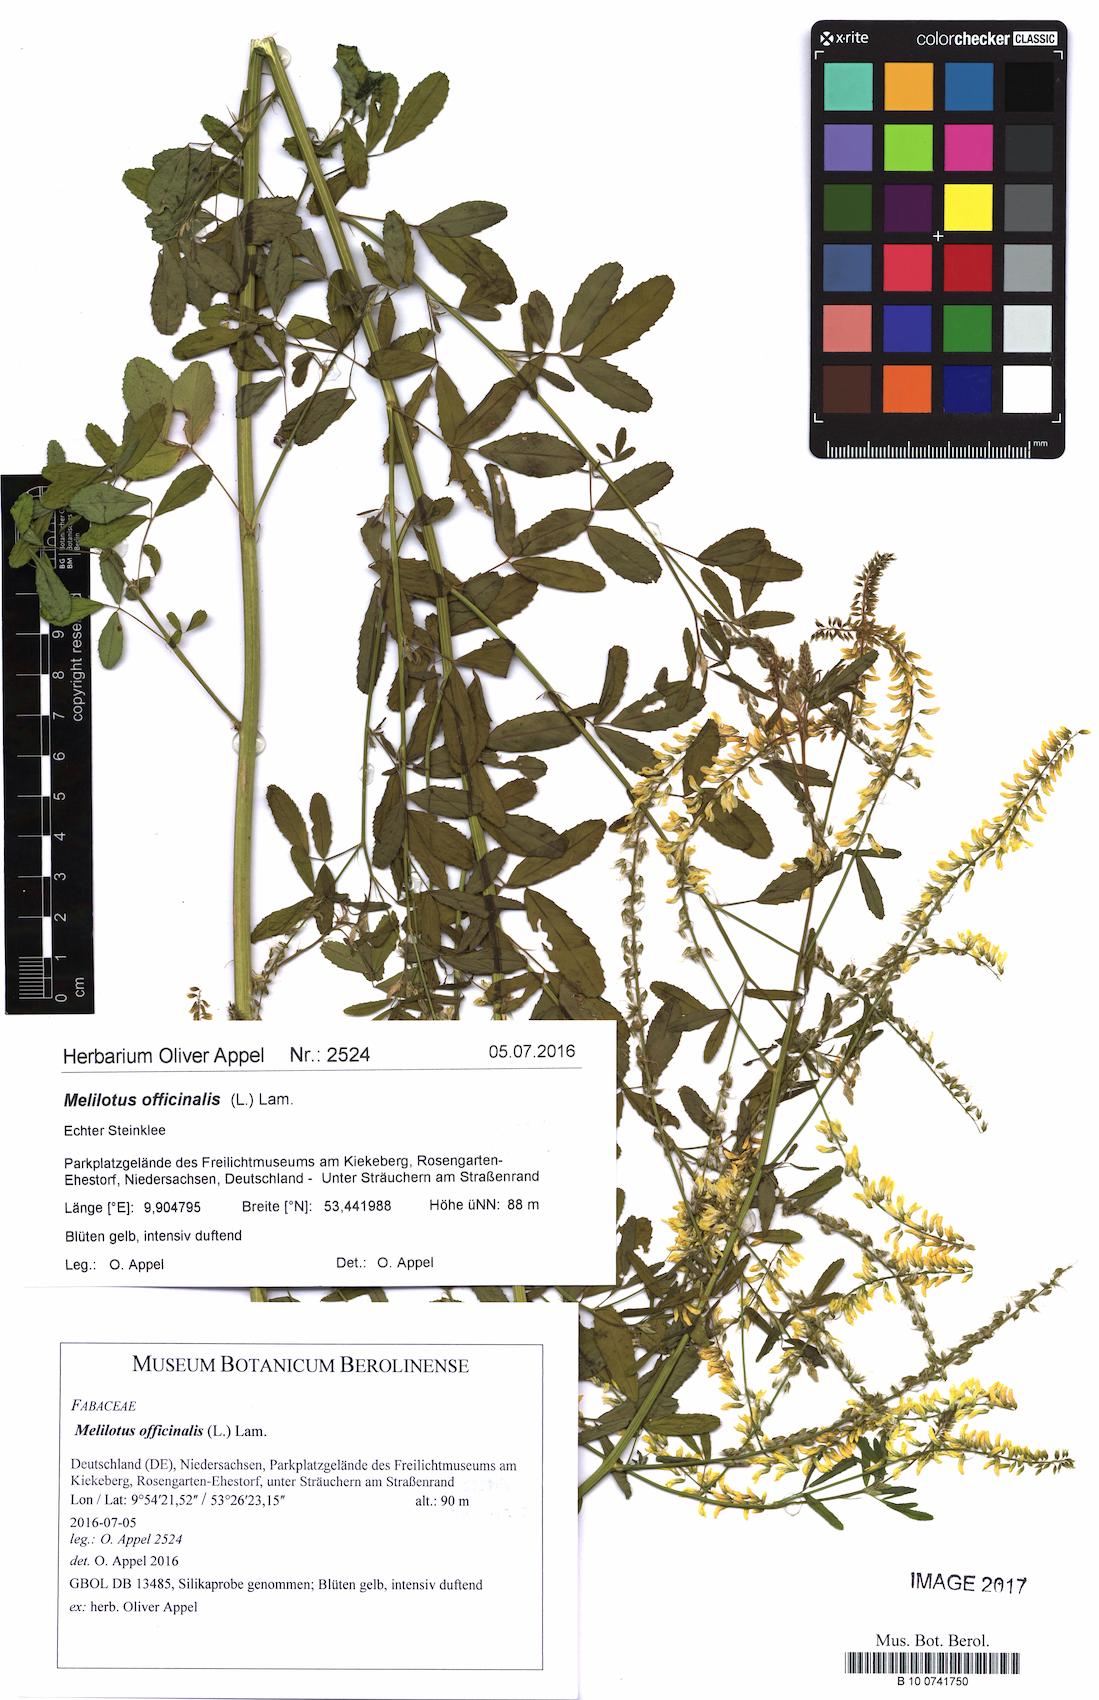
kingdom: Plantae
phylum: Tracheophyta
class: Magnoliopsida
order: Fabales
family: Fabaceae
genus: Melilotus
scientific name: Melilotus officinalis
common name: Sweetclover
